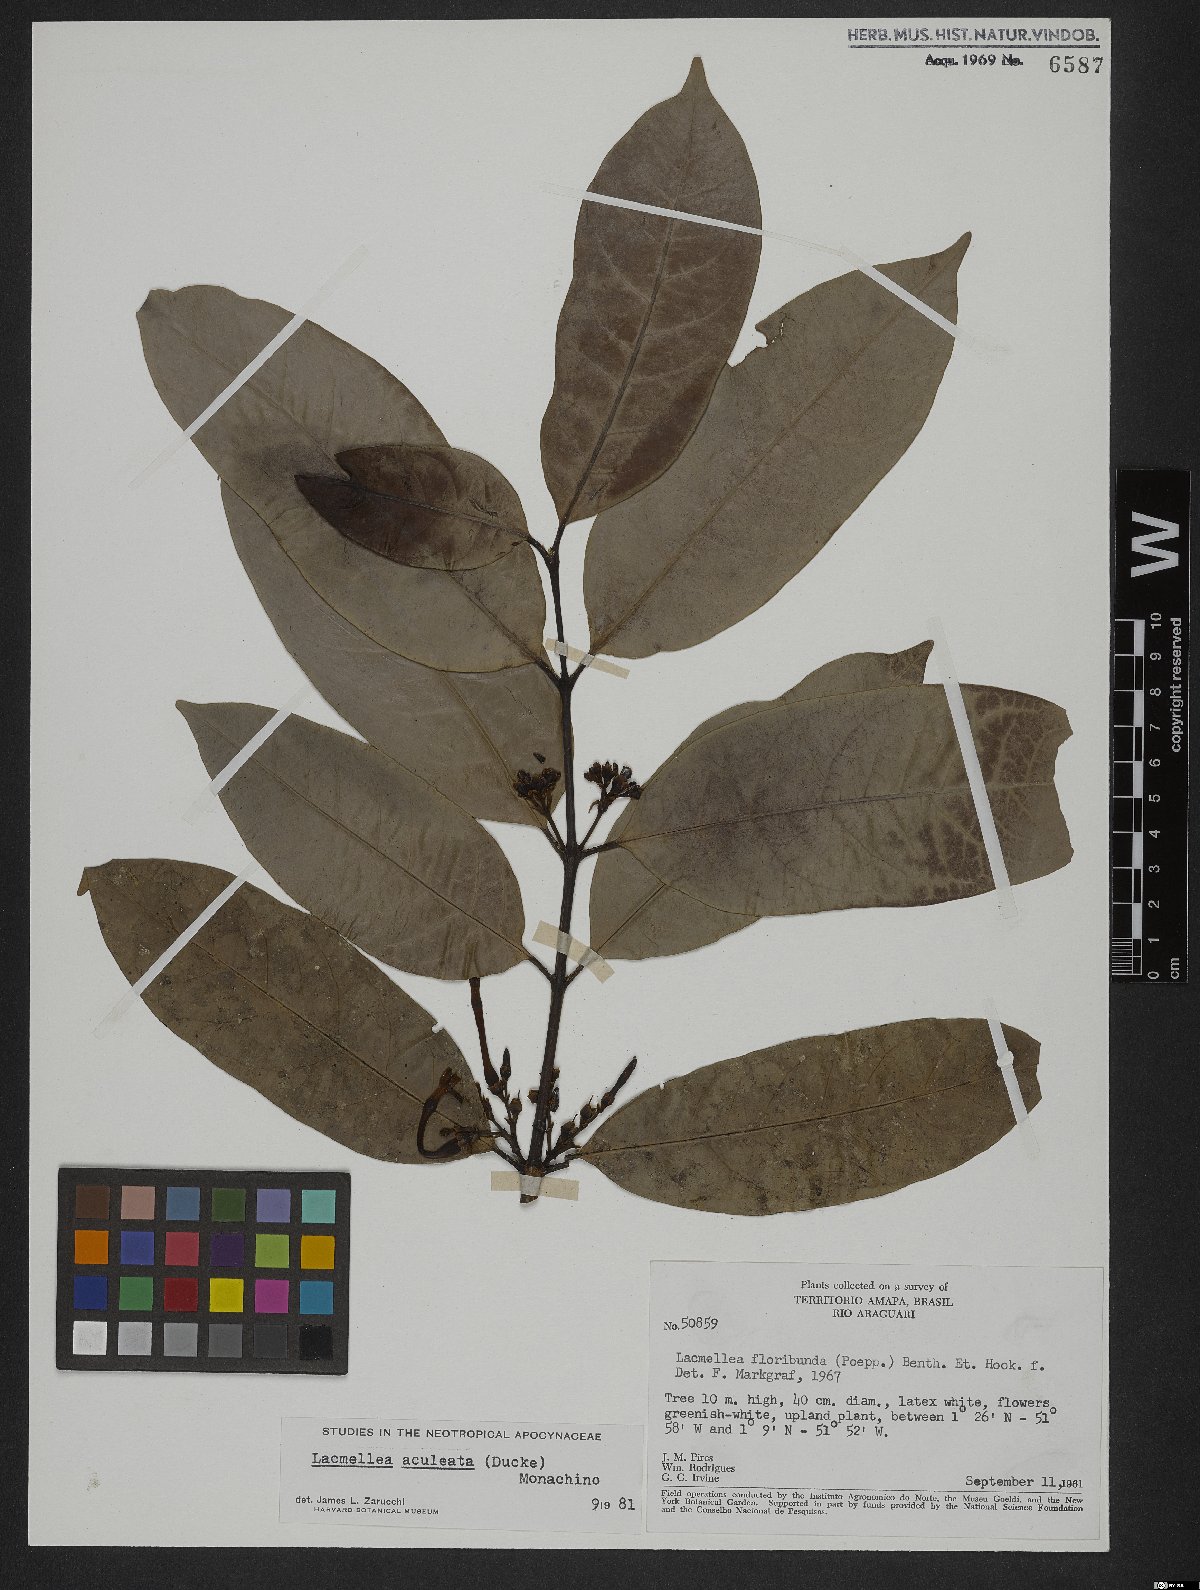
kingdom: Plantae
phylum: Tracheophyta
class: Magnoliopsida
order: Gentianales
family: Apocynaceae
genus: Lacmellea
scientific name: Lacmellea aculeata
